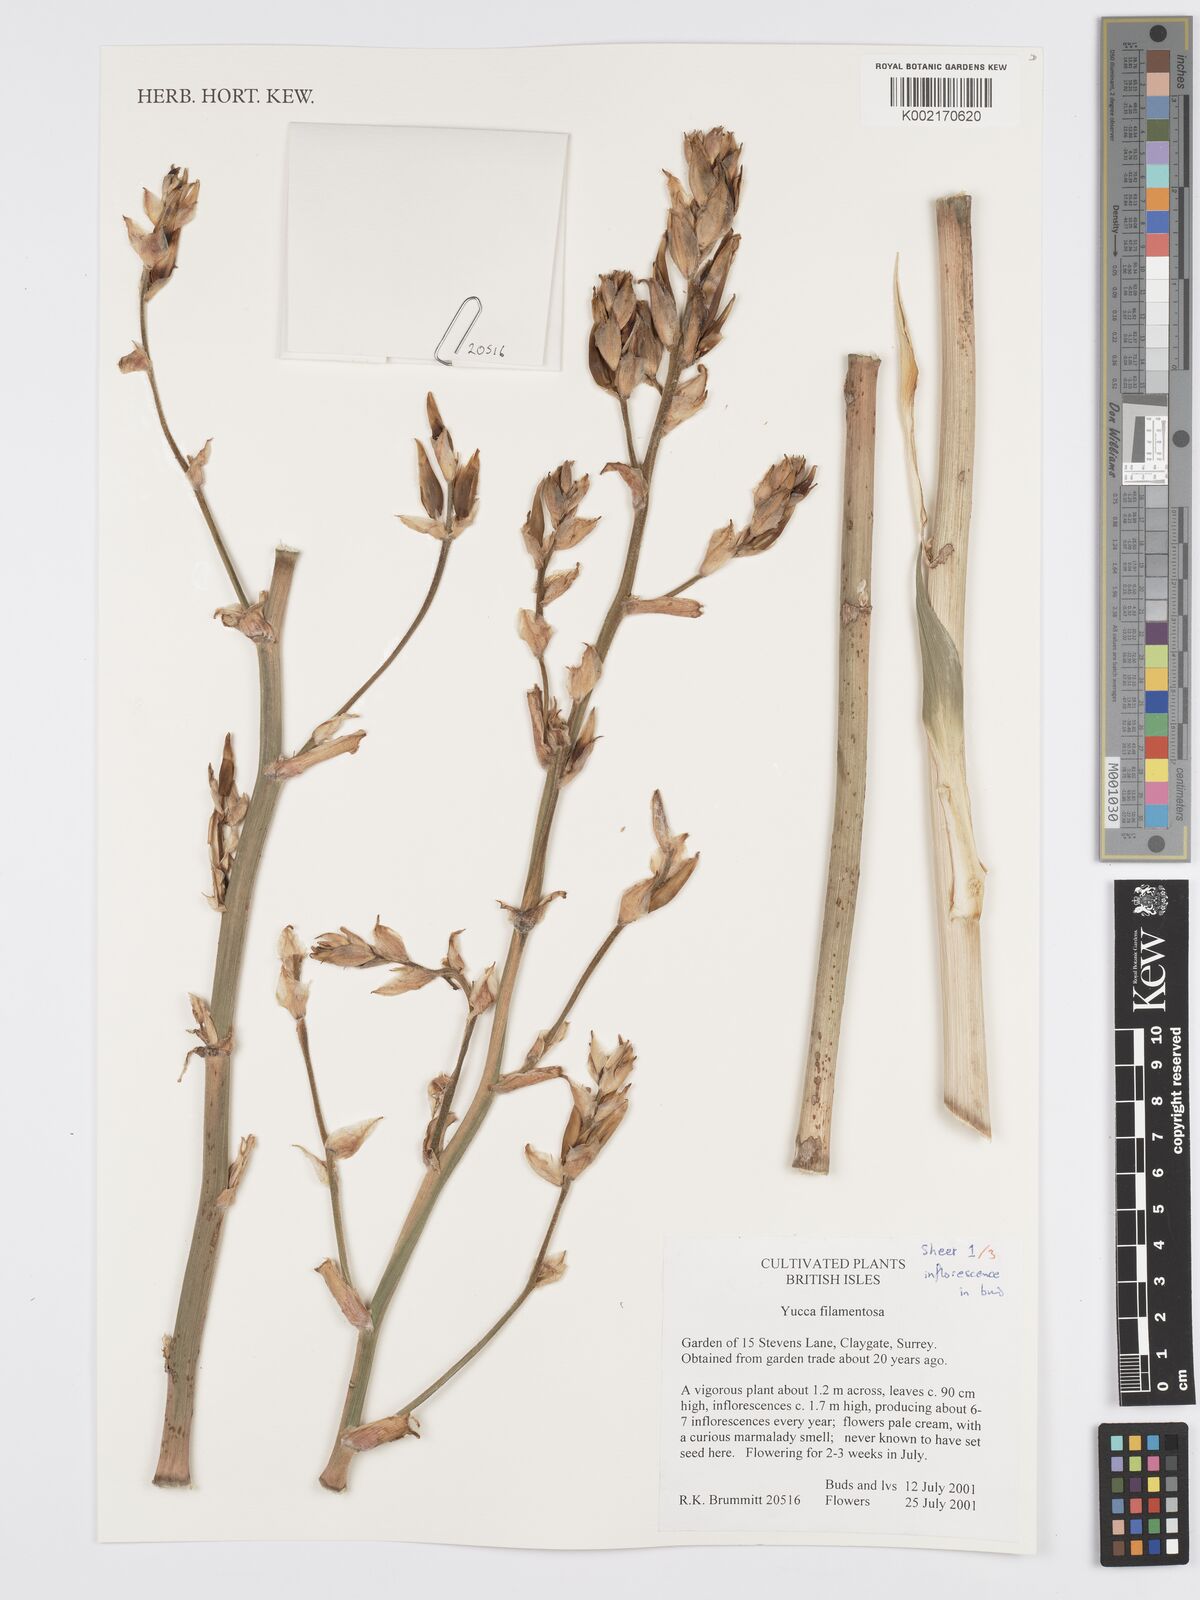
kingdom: Plantae
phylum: Tracheophyta
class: Liliopsida
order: Asparagales
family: Asparagaceae
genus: Yucca
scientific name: Yucca filamentosa
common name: Adam's-needle
